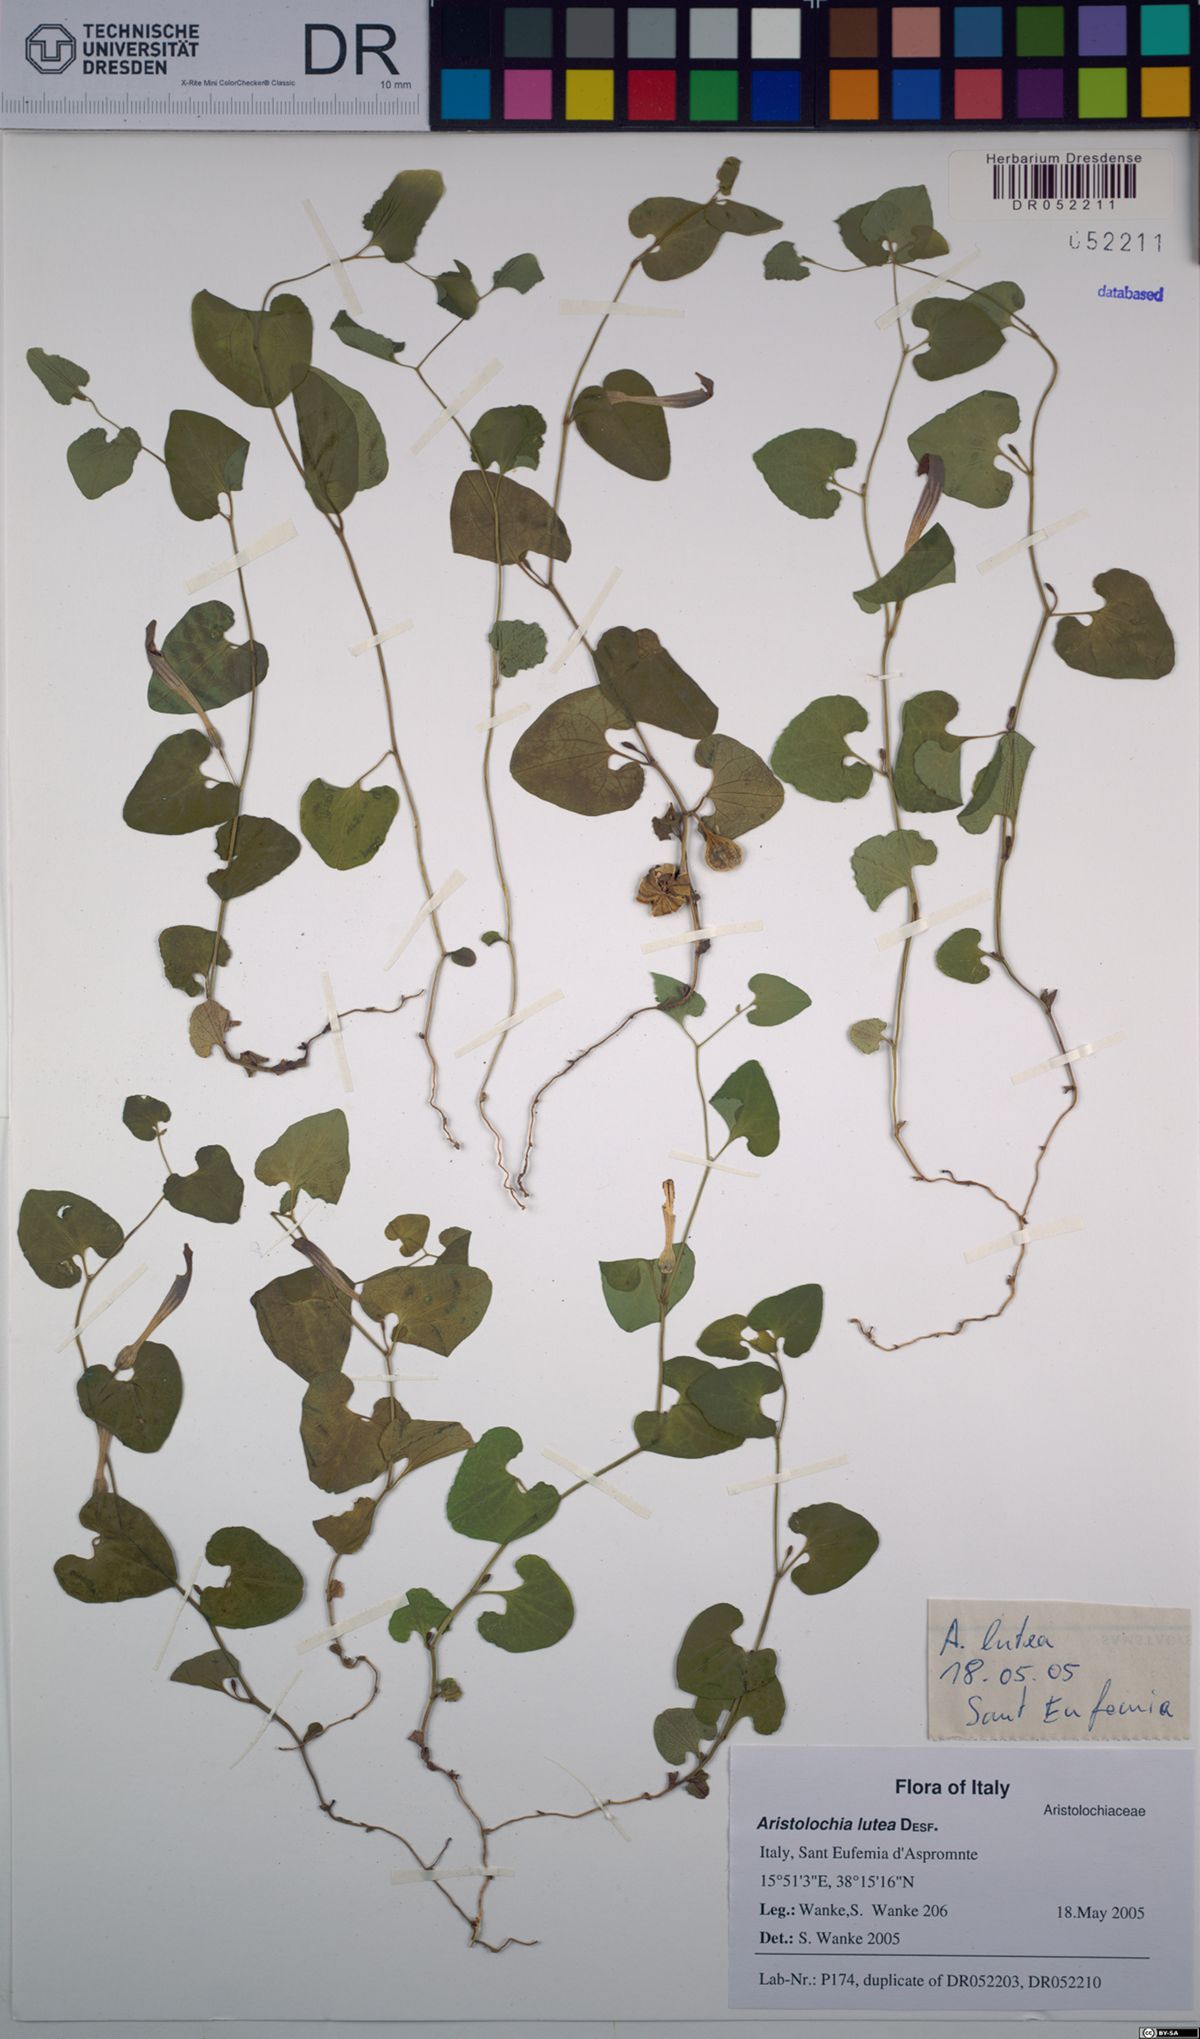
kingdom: Plantae
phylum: Tracheophyta
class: Magnoliopsida
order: Piperales
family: Aristolochiaceae
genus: Aristolochia
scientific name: Aristolochia lutea
